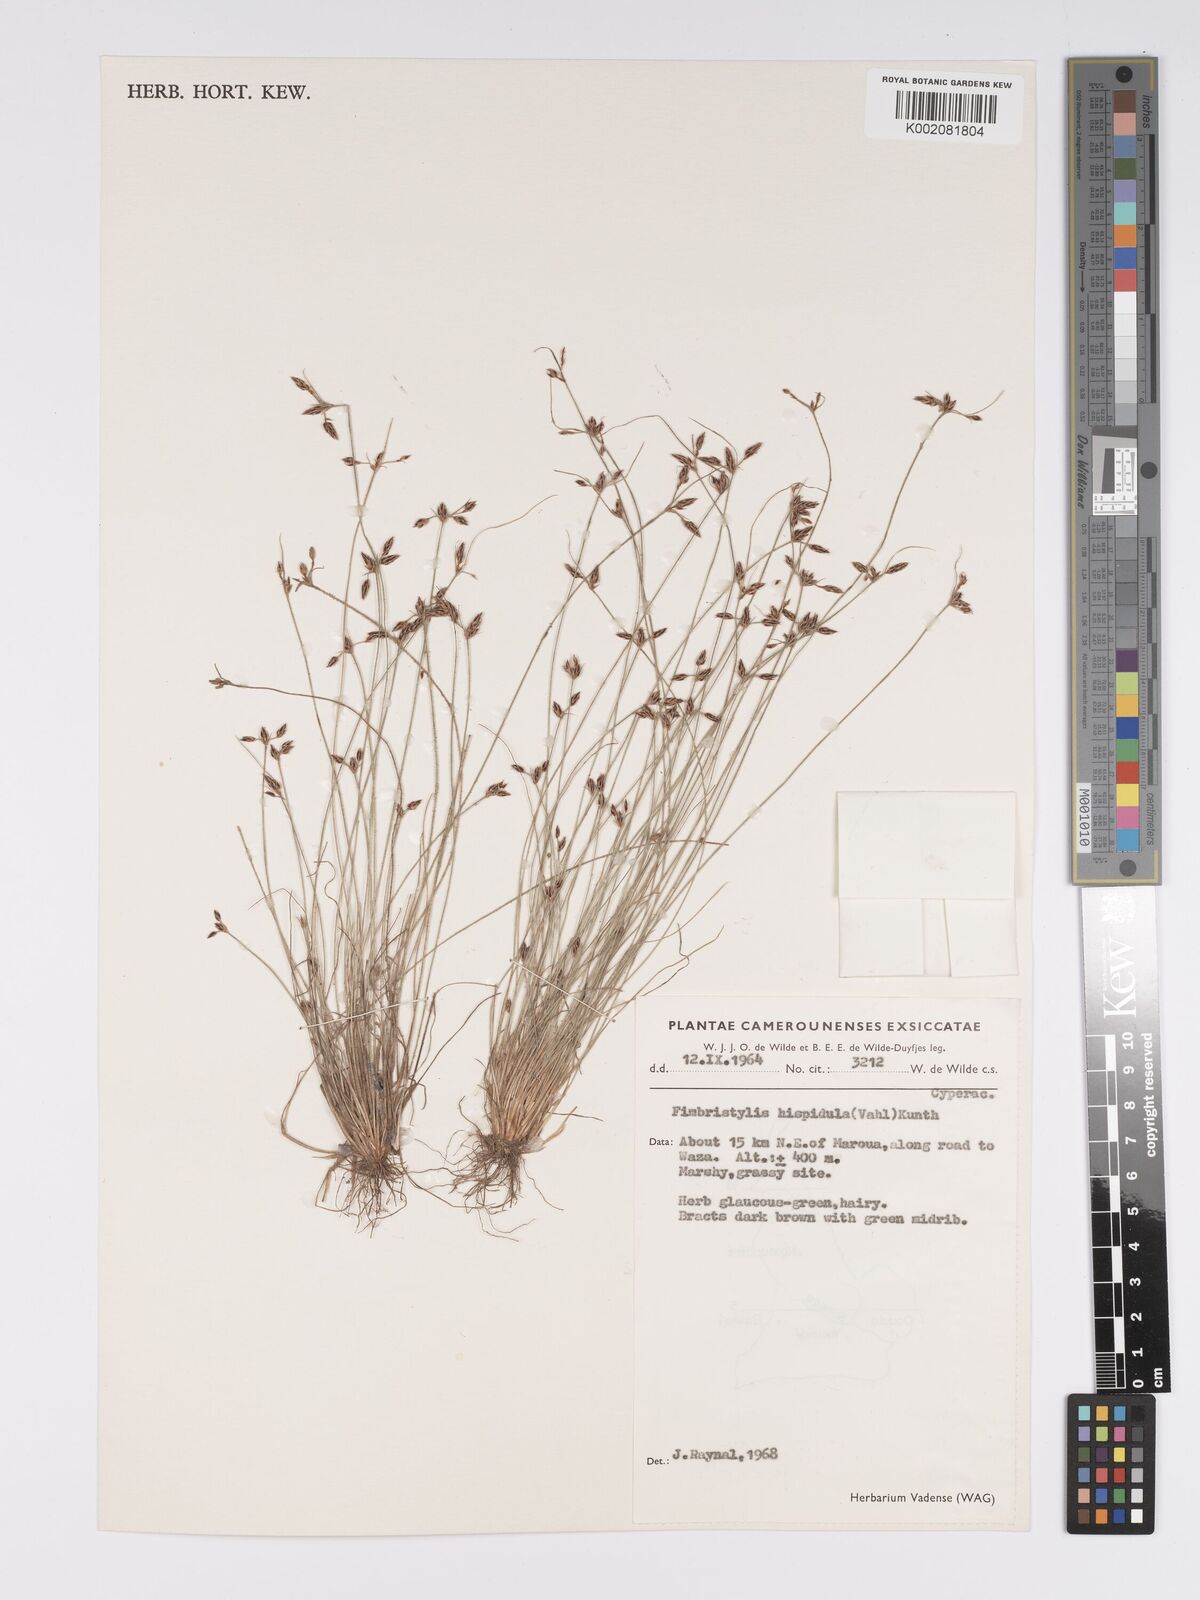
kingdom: Plantae
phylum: Tracheophyta
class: Liliopsida
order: Poales
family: Cyperaceae
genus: Bulbostylis
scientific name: Bulbostylis hispidula
